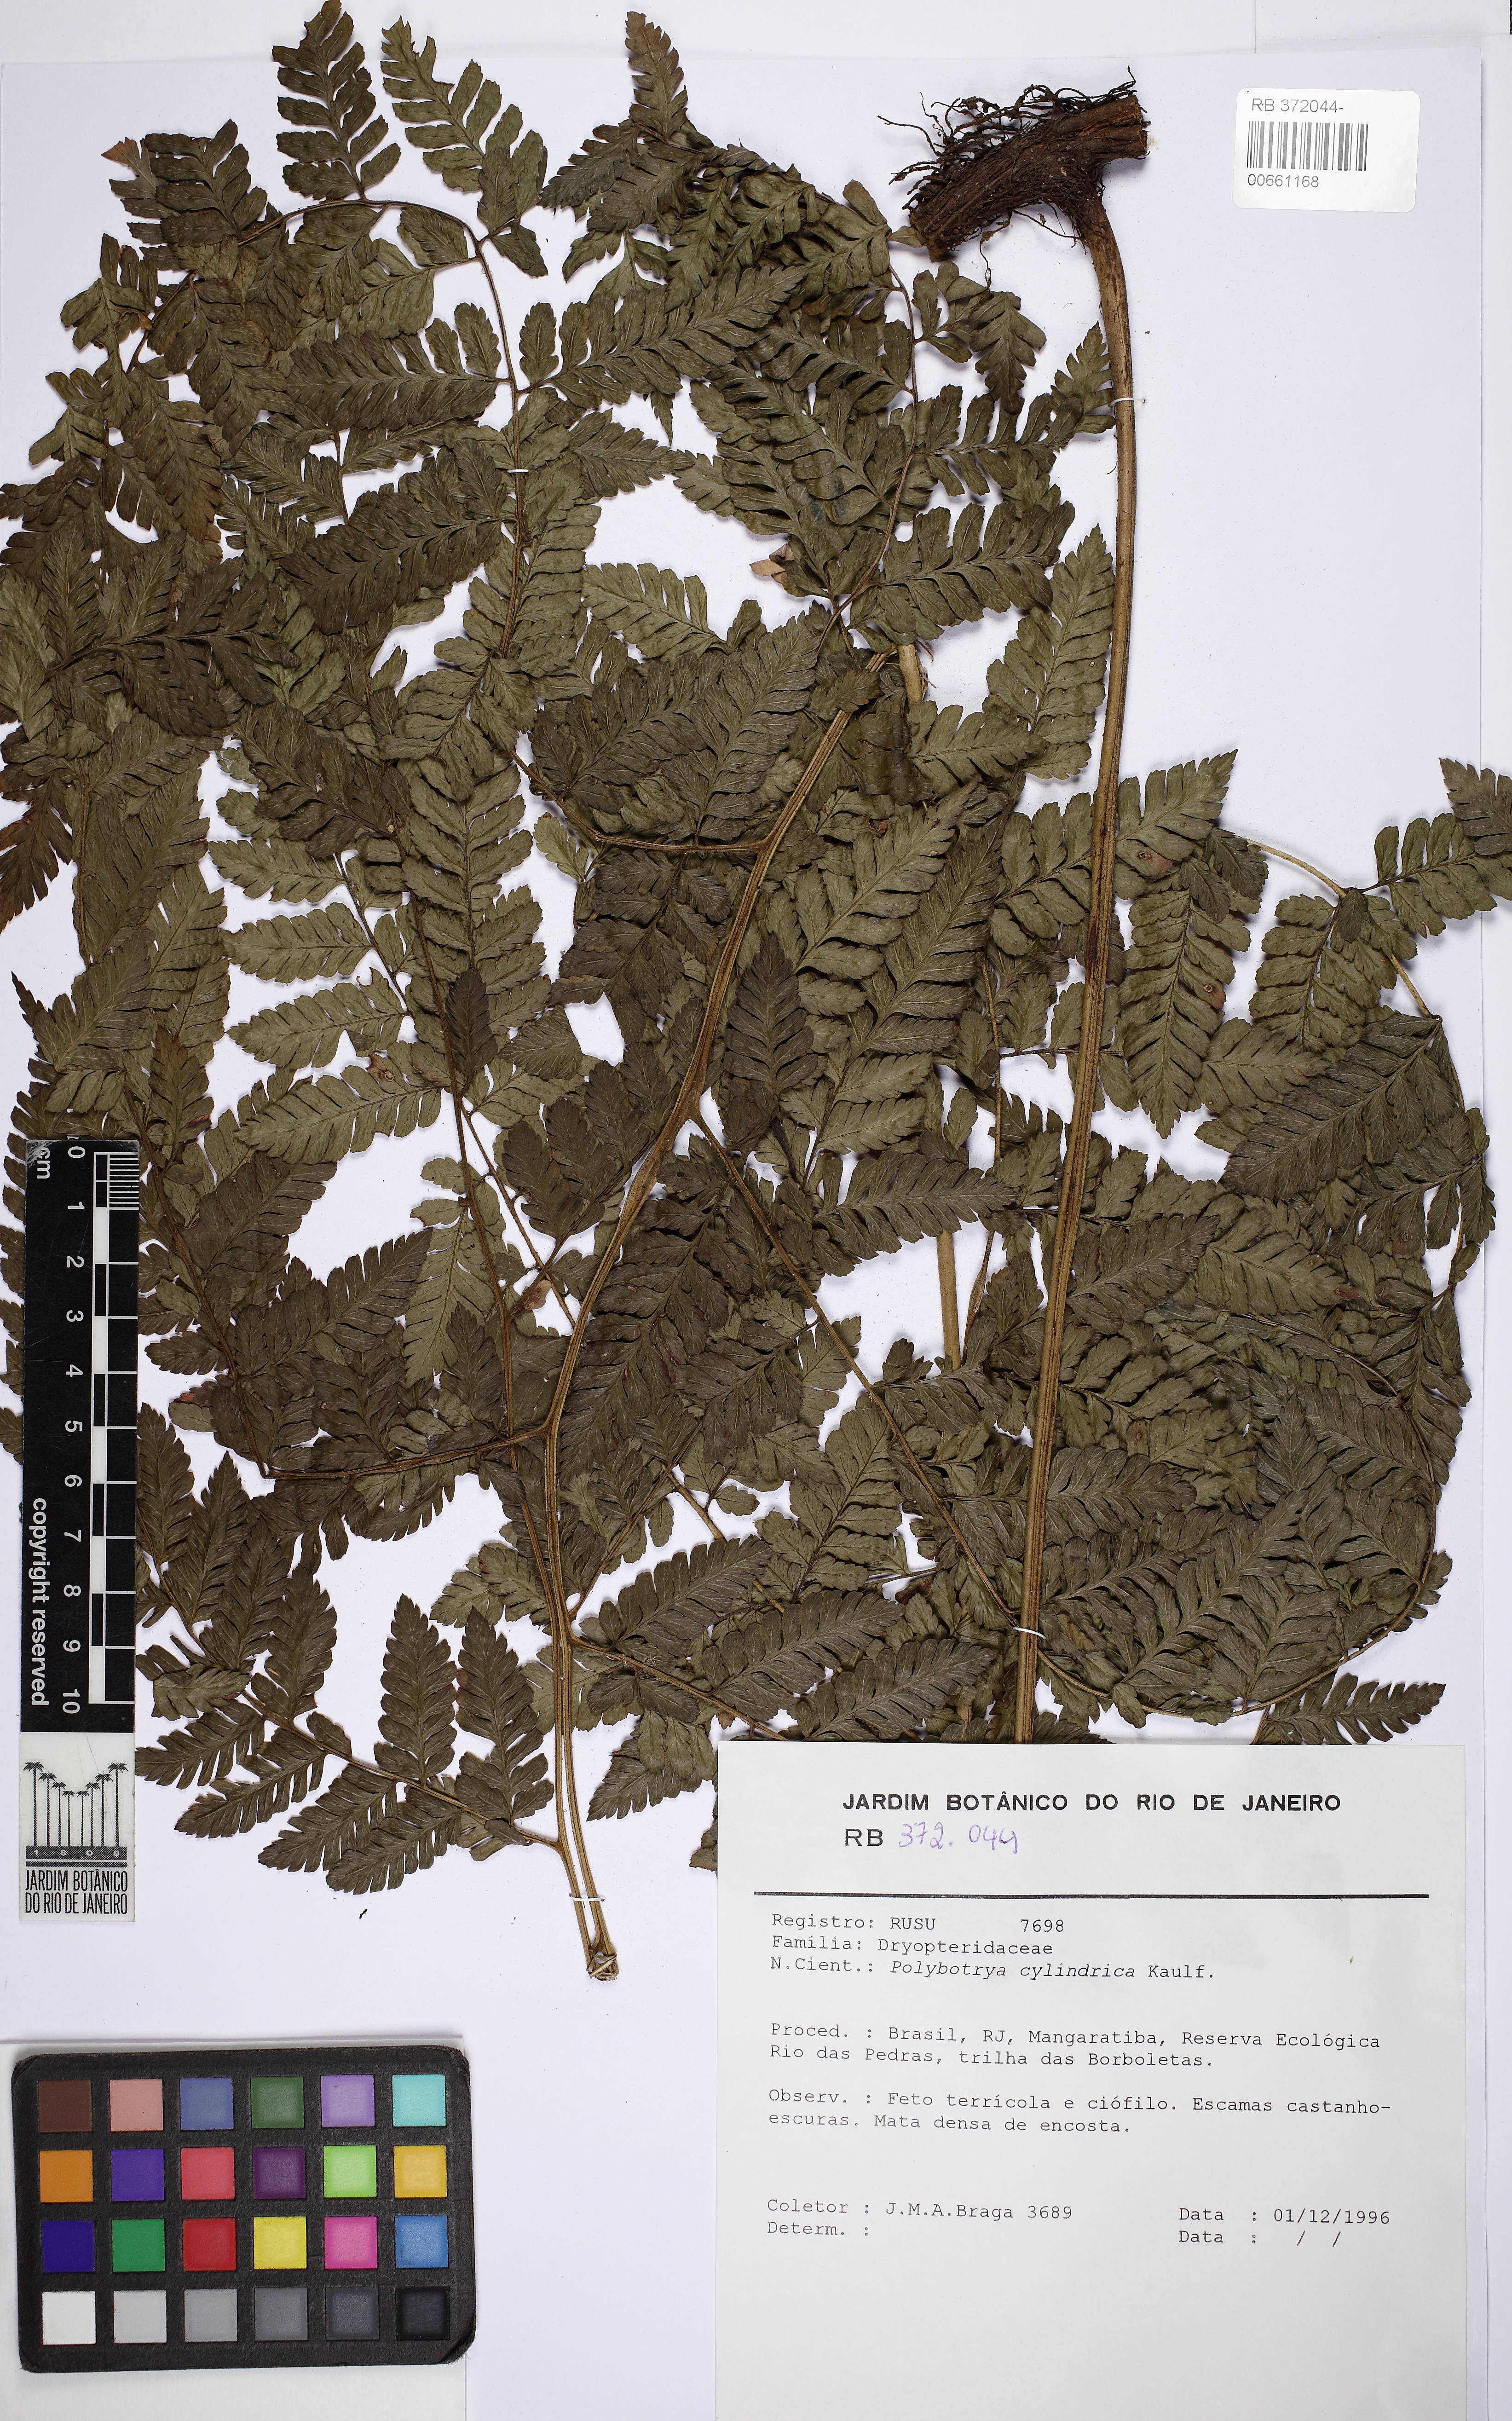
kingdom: Plantae
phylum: Tracheophyta
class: Polypodiopsida
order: Polypodiales
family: Dryopteridaceae
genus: Polybotrya
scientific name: Polybotrya cylindrica
